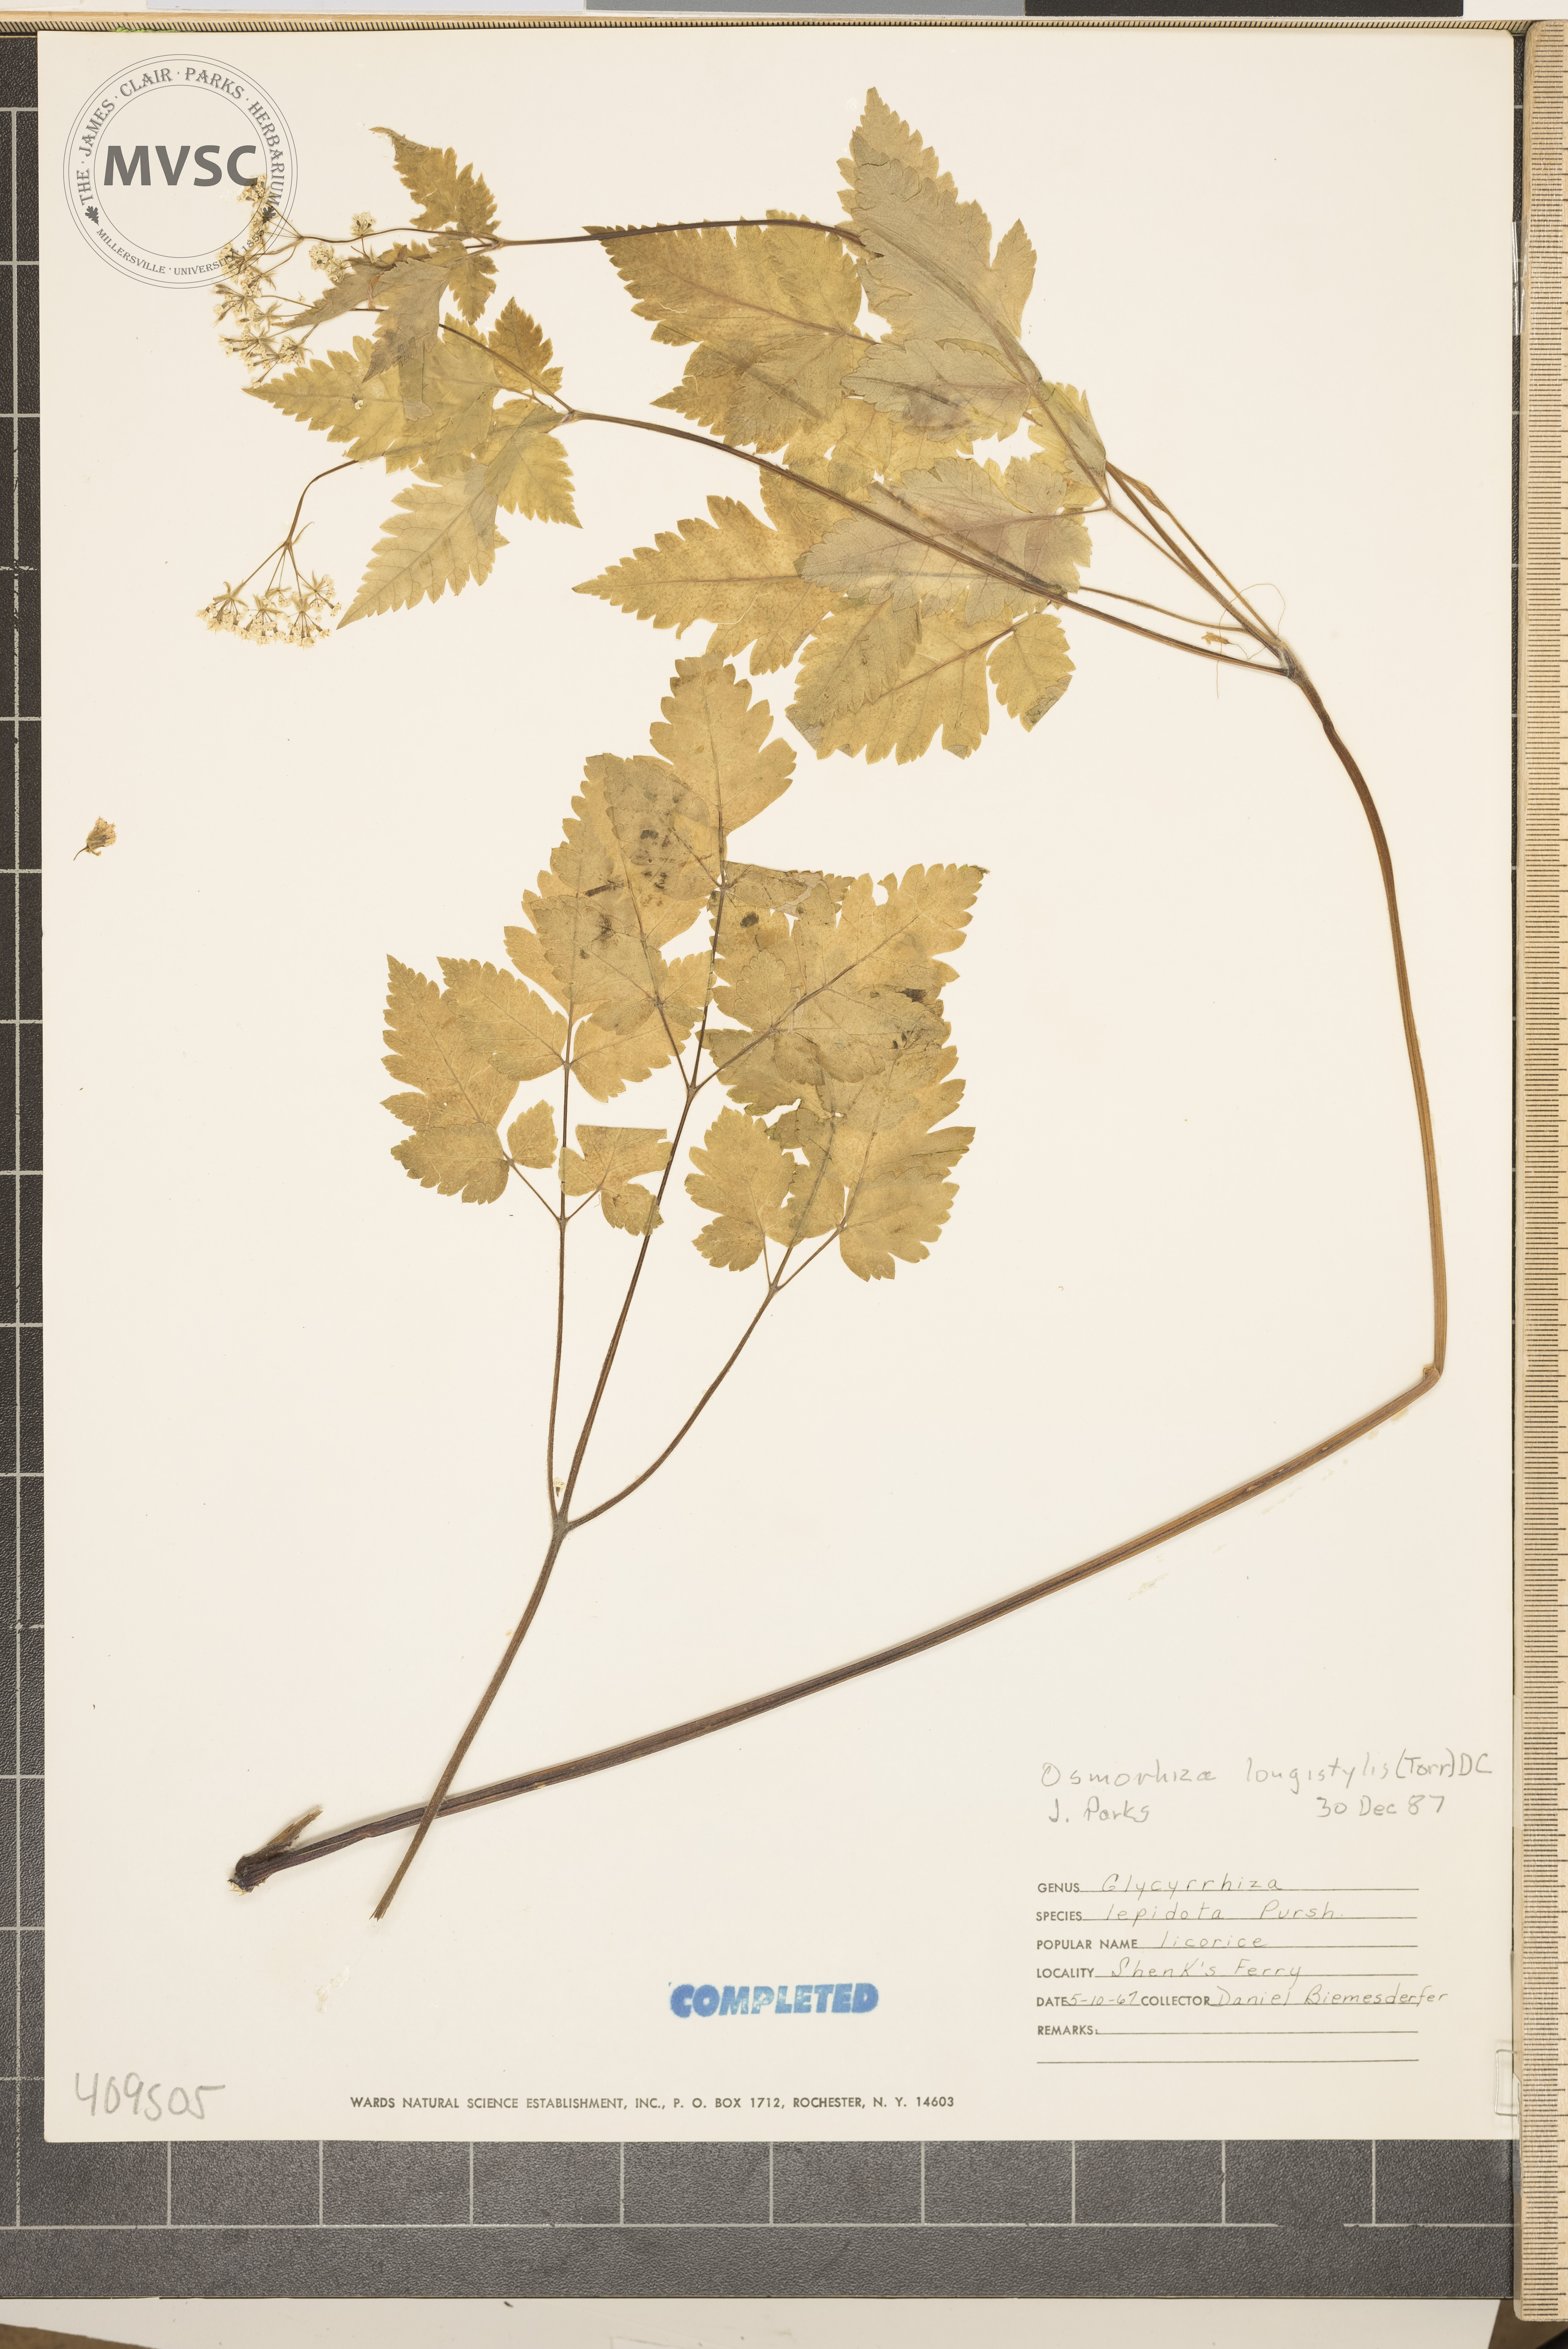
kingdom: Plantae
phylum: Tracheophyta
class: Magnoliopsida
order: Apiales
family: Apiaceae
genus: Osmorhiza
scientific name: Osmorhiza longistylis
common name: Smooth sweet cicely
